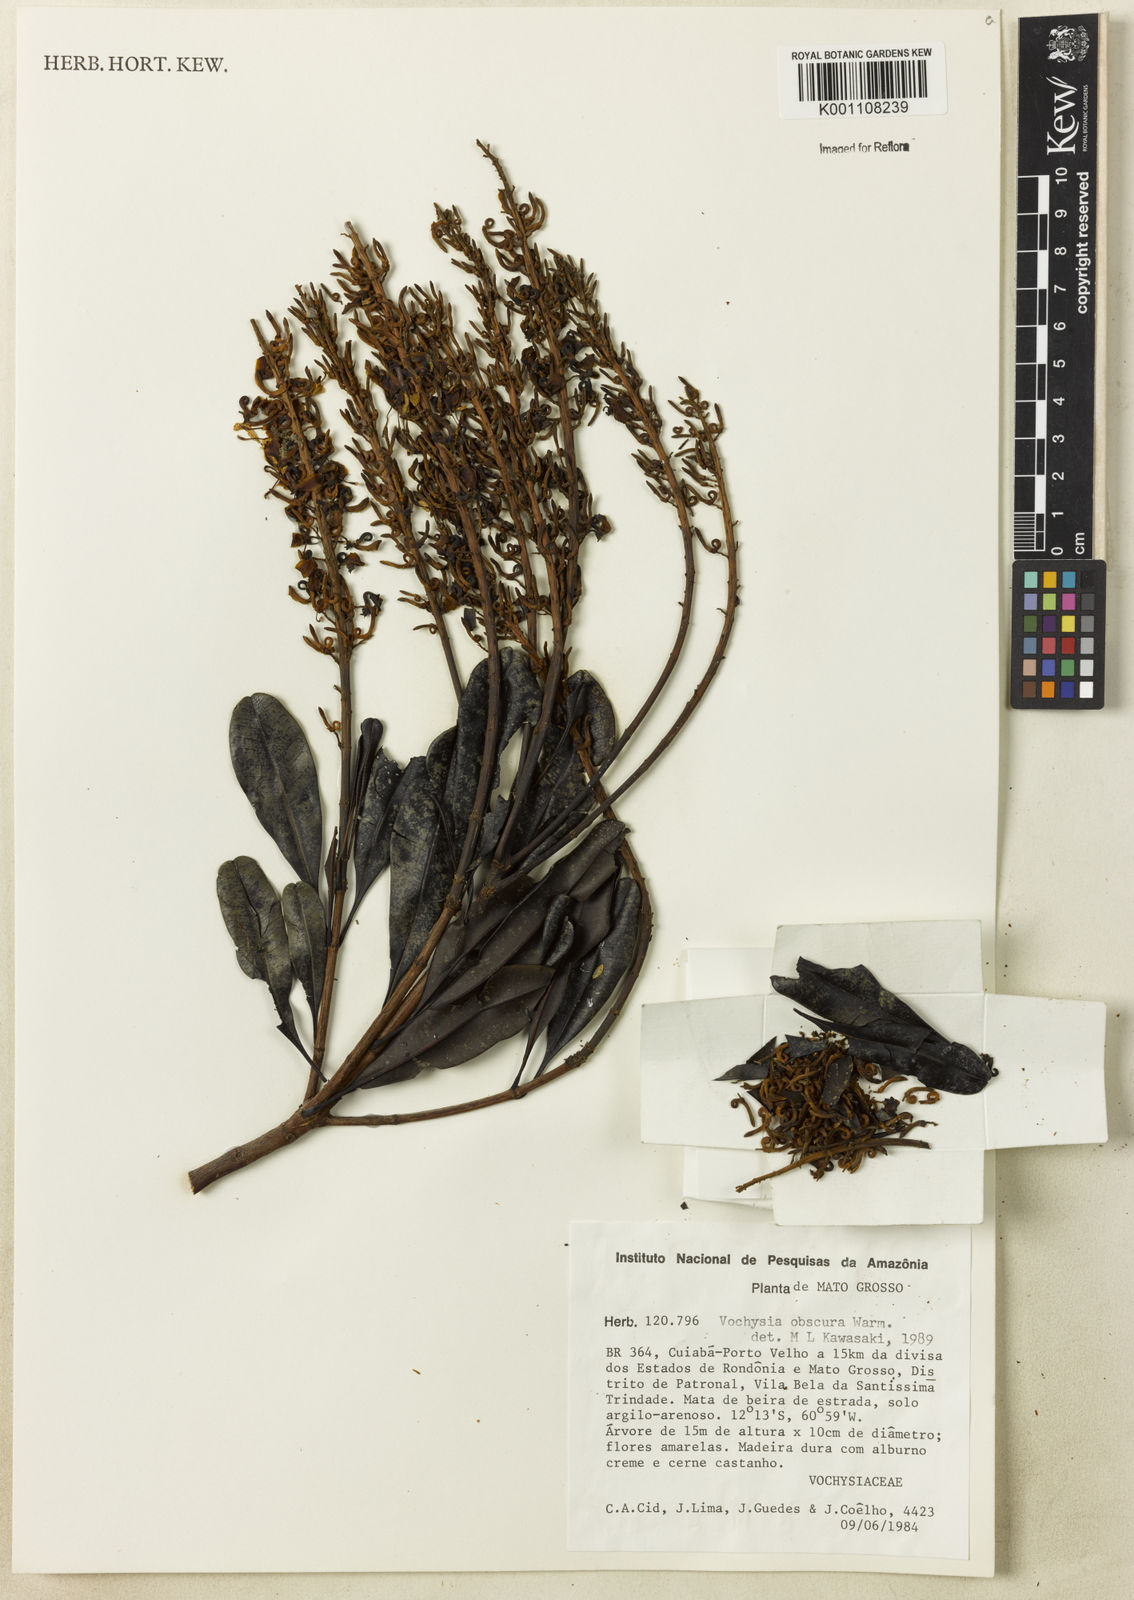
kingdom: Plantae
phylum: Tracheophyta
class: Magnoliopsida
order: Myrtales
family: Vochysiaceae
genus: Vochysia
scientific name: Vochysia obscura
